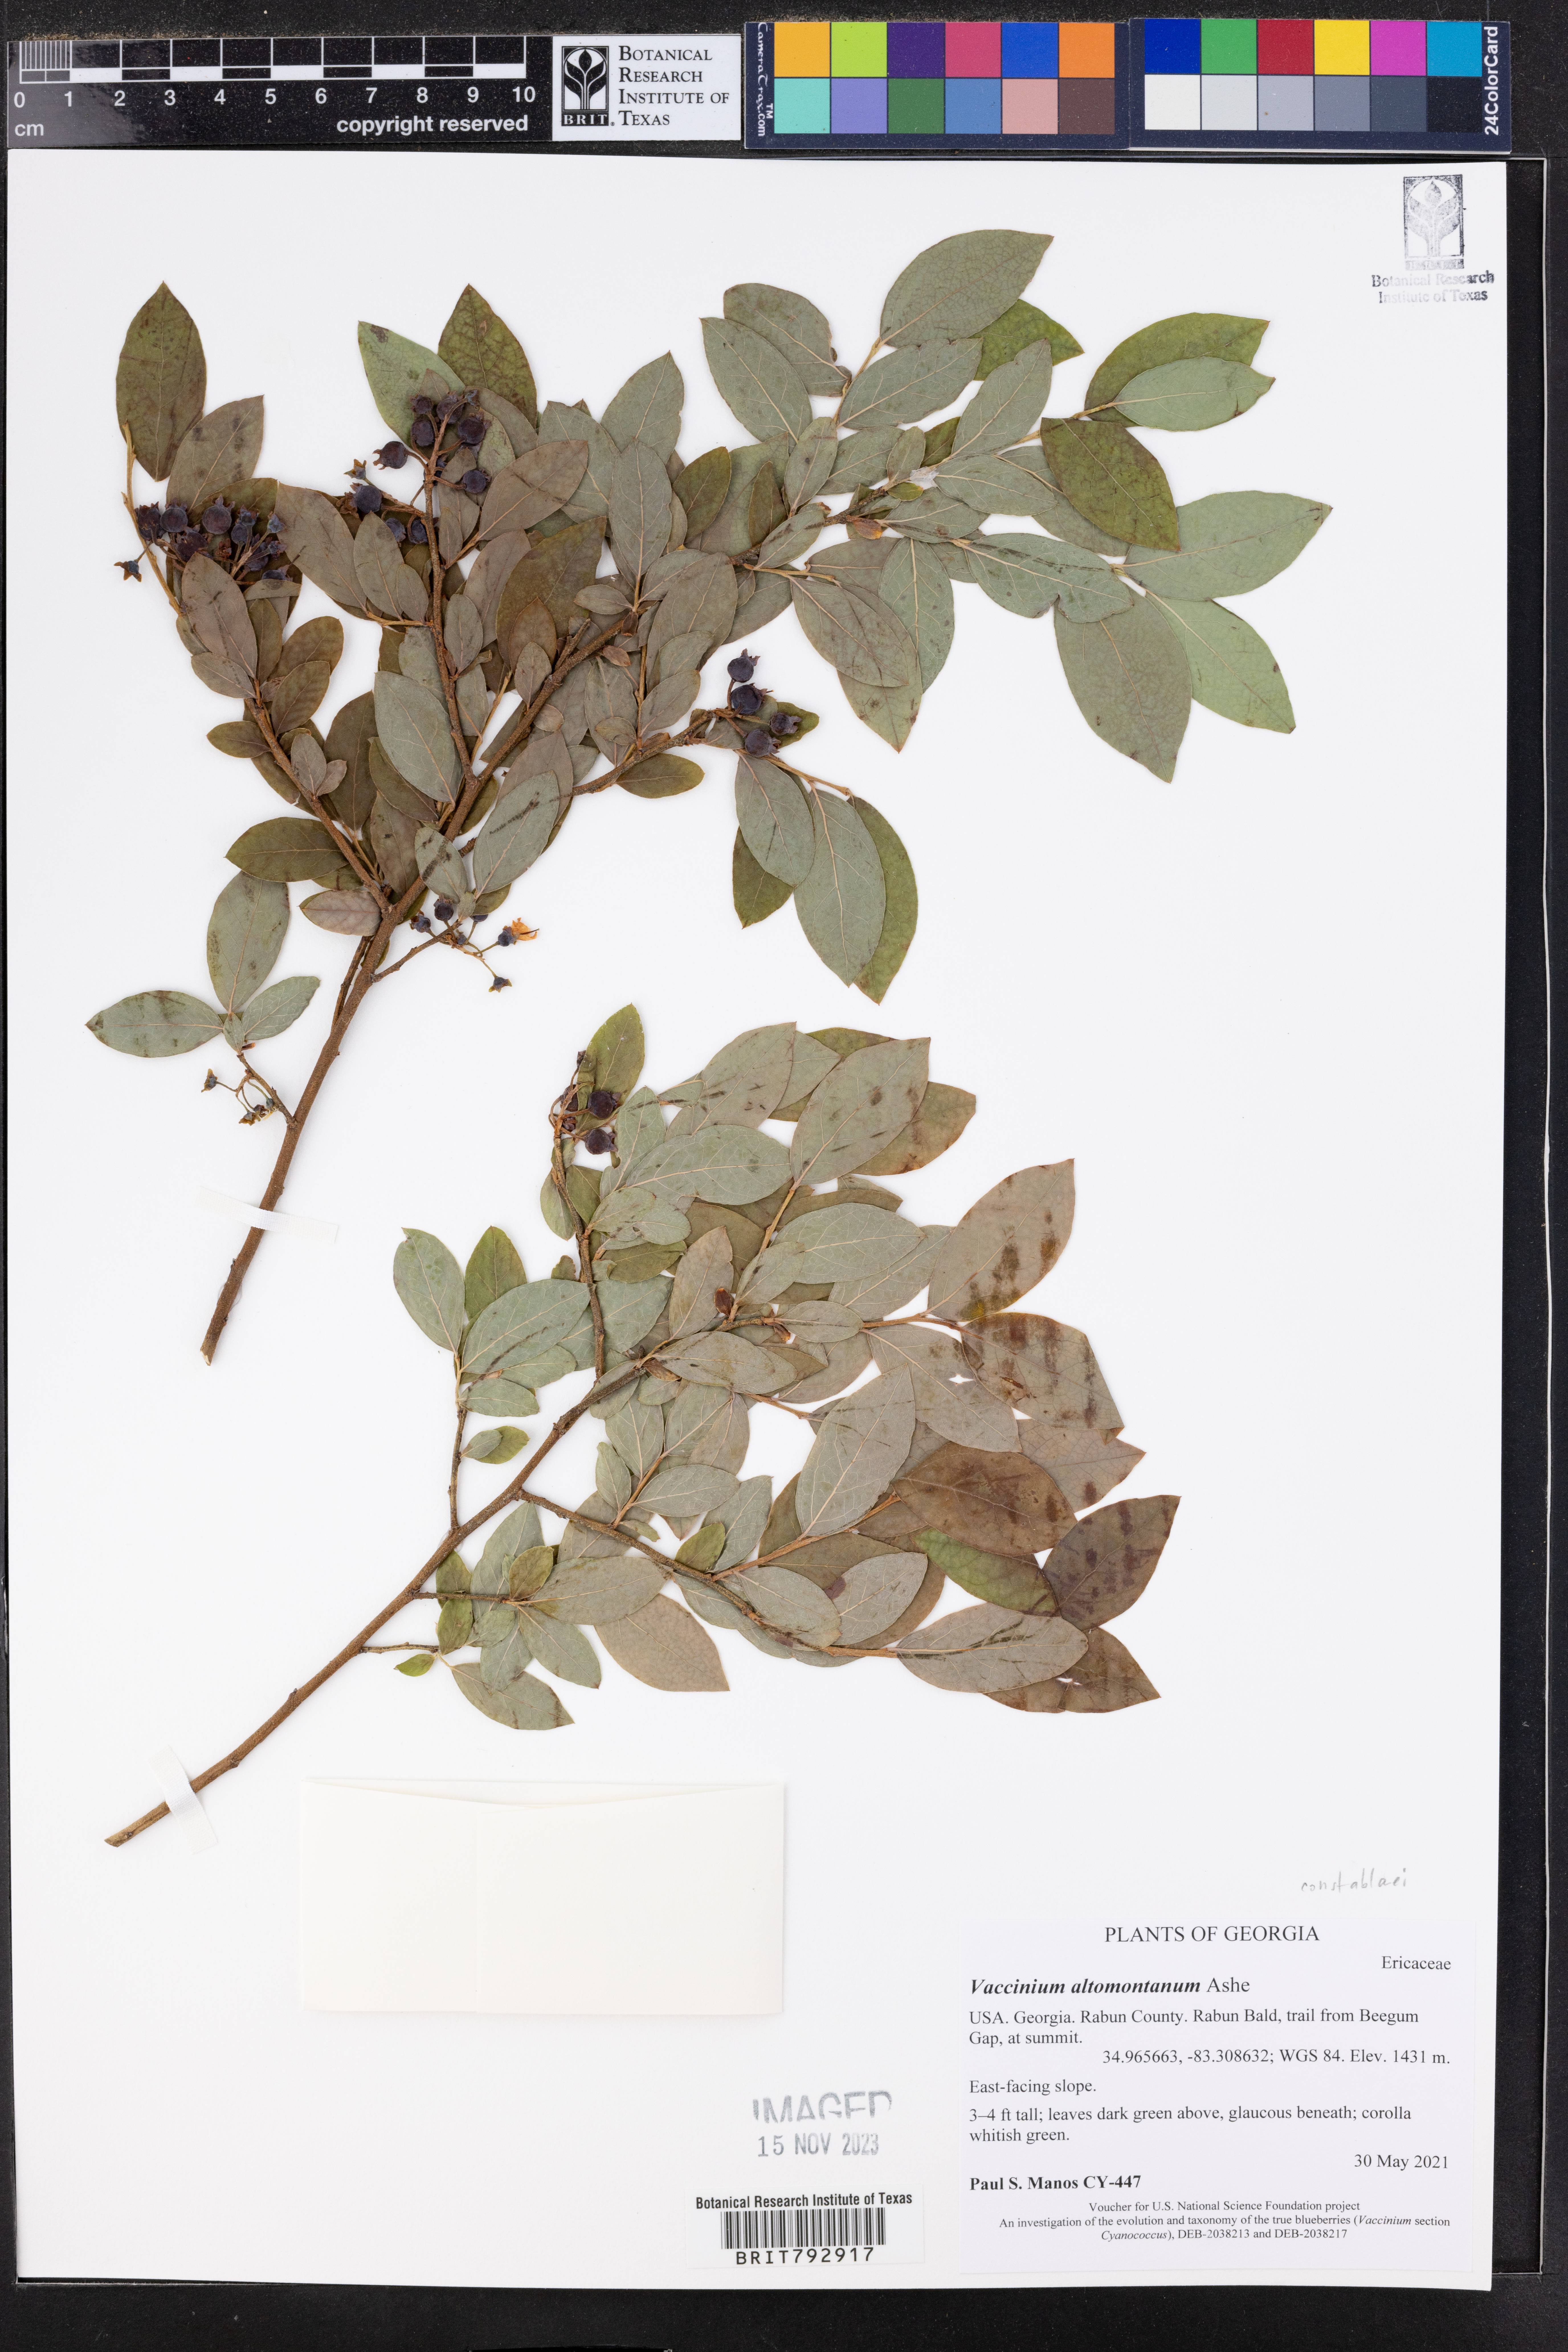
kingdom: Plantae
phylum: Tracheophyta
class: Magnoliopsida
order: Ericales
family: Ericaceae
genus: Vaccinium
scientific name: Vaccinium pallidum
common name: Blue ridge blueberry
